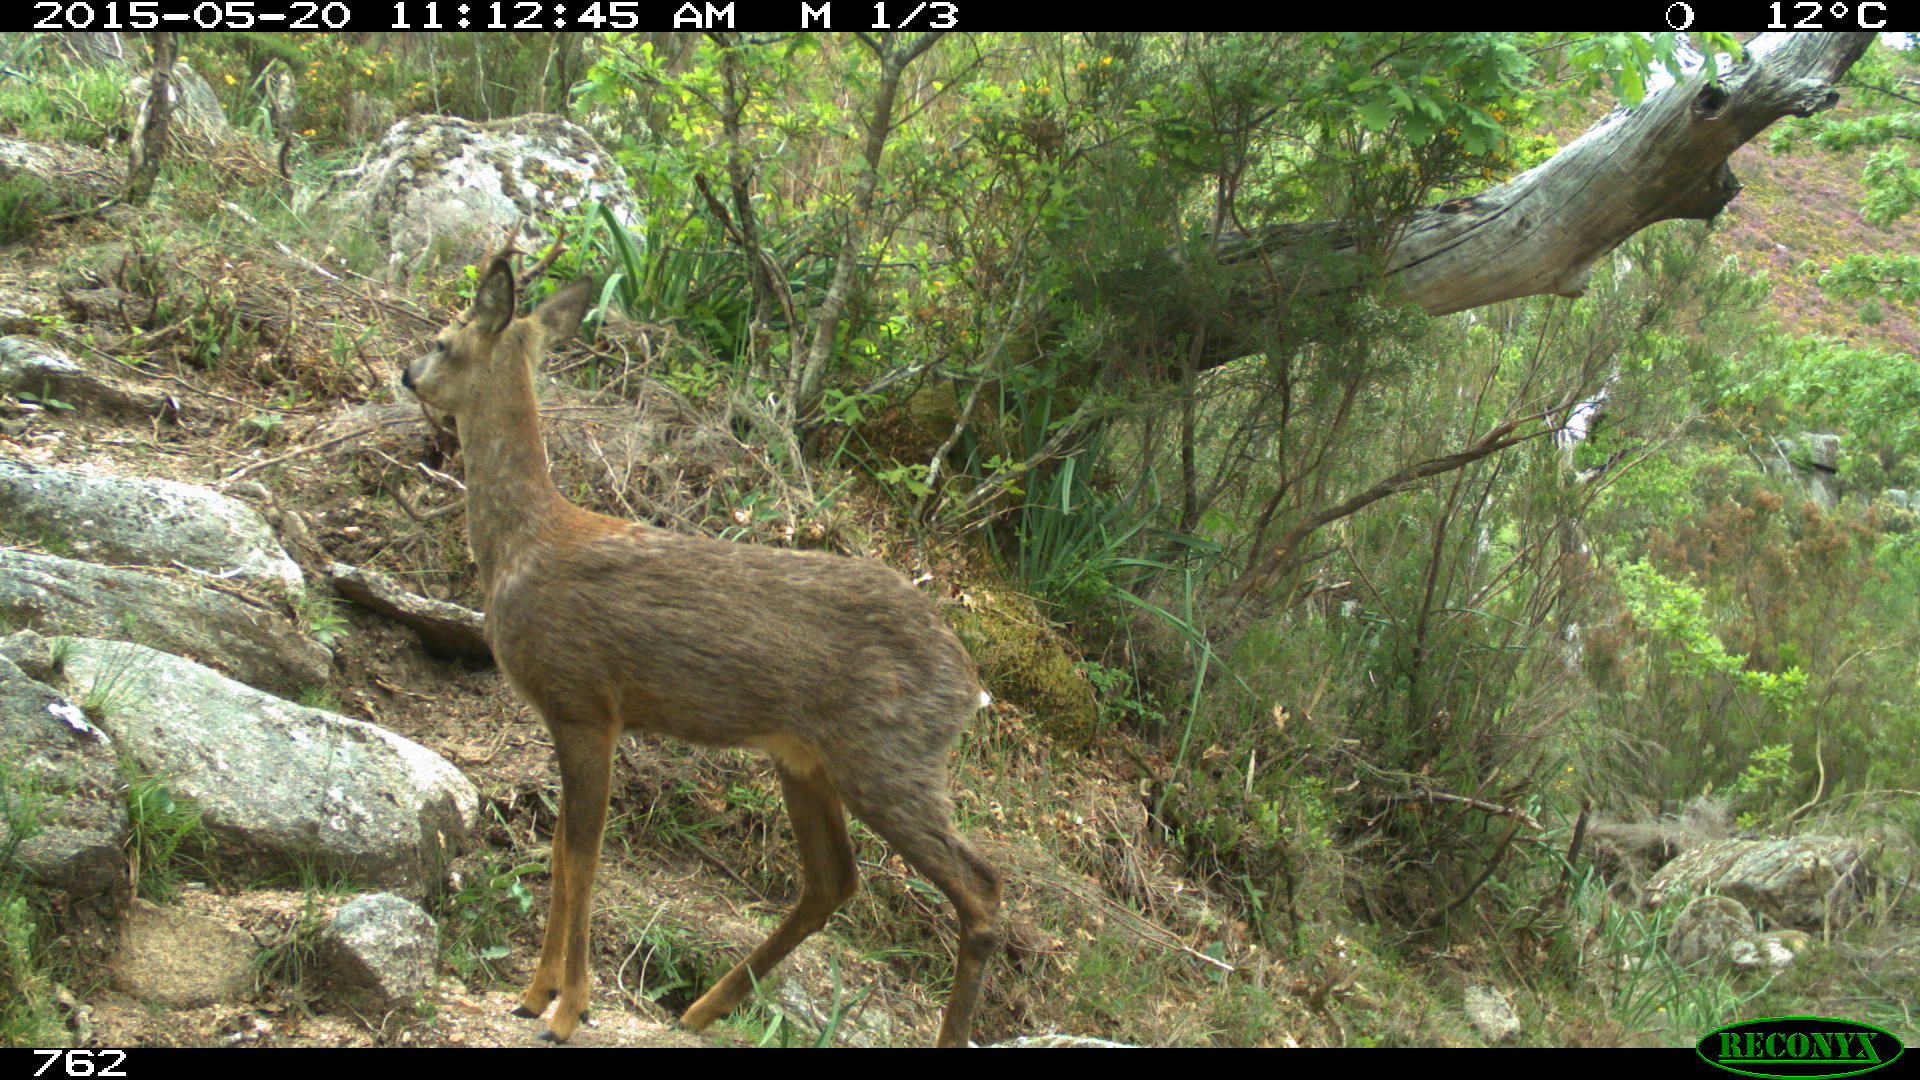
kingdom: Animalia
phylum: Chordata
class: Mammalia
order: Artiodactyla
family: Cervidae
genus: Capreolus
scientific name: Capreolus capreolus
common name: Western roe deer
